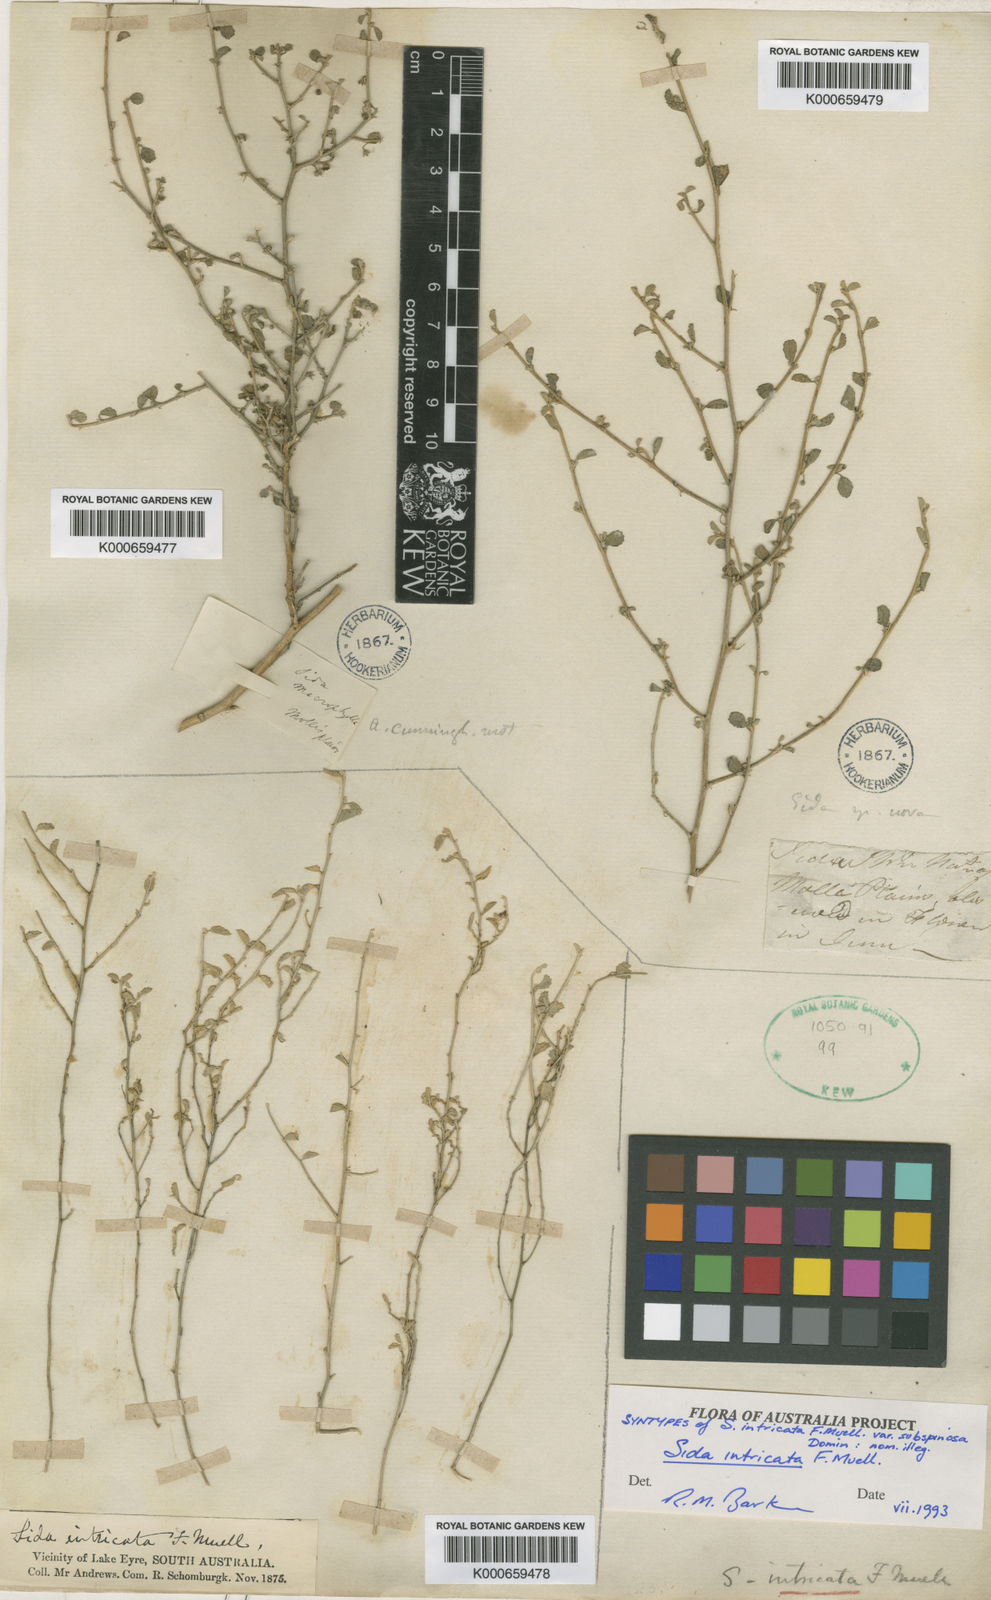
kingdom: Plantae
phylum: Tracheophyta
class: Magnoliopsida
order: Malvales
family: Malvaceae
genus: Sida
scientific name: Sida intricata
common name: Twiggy sida
